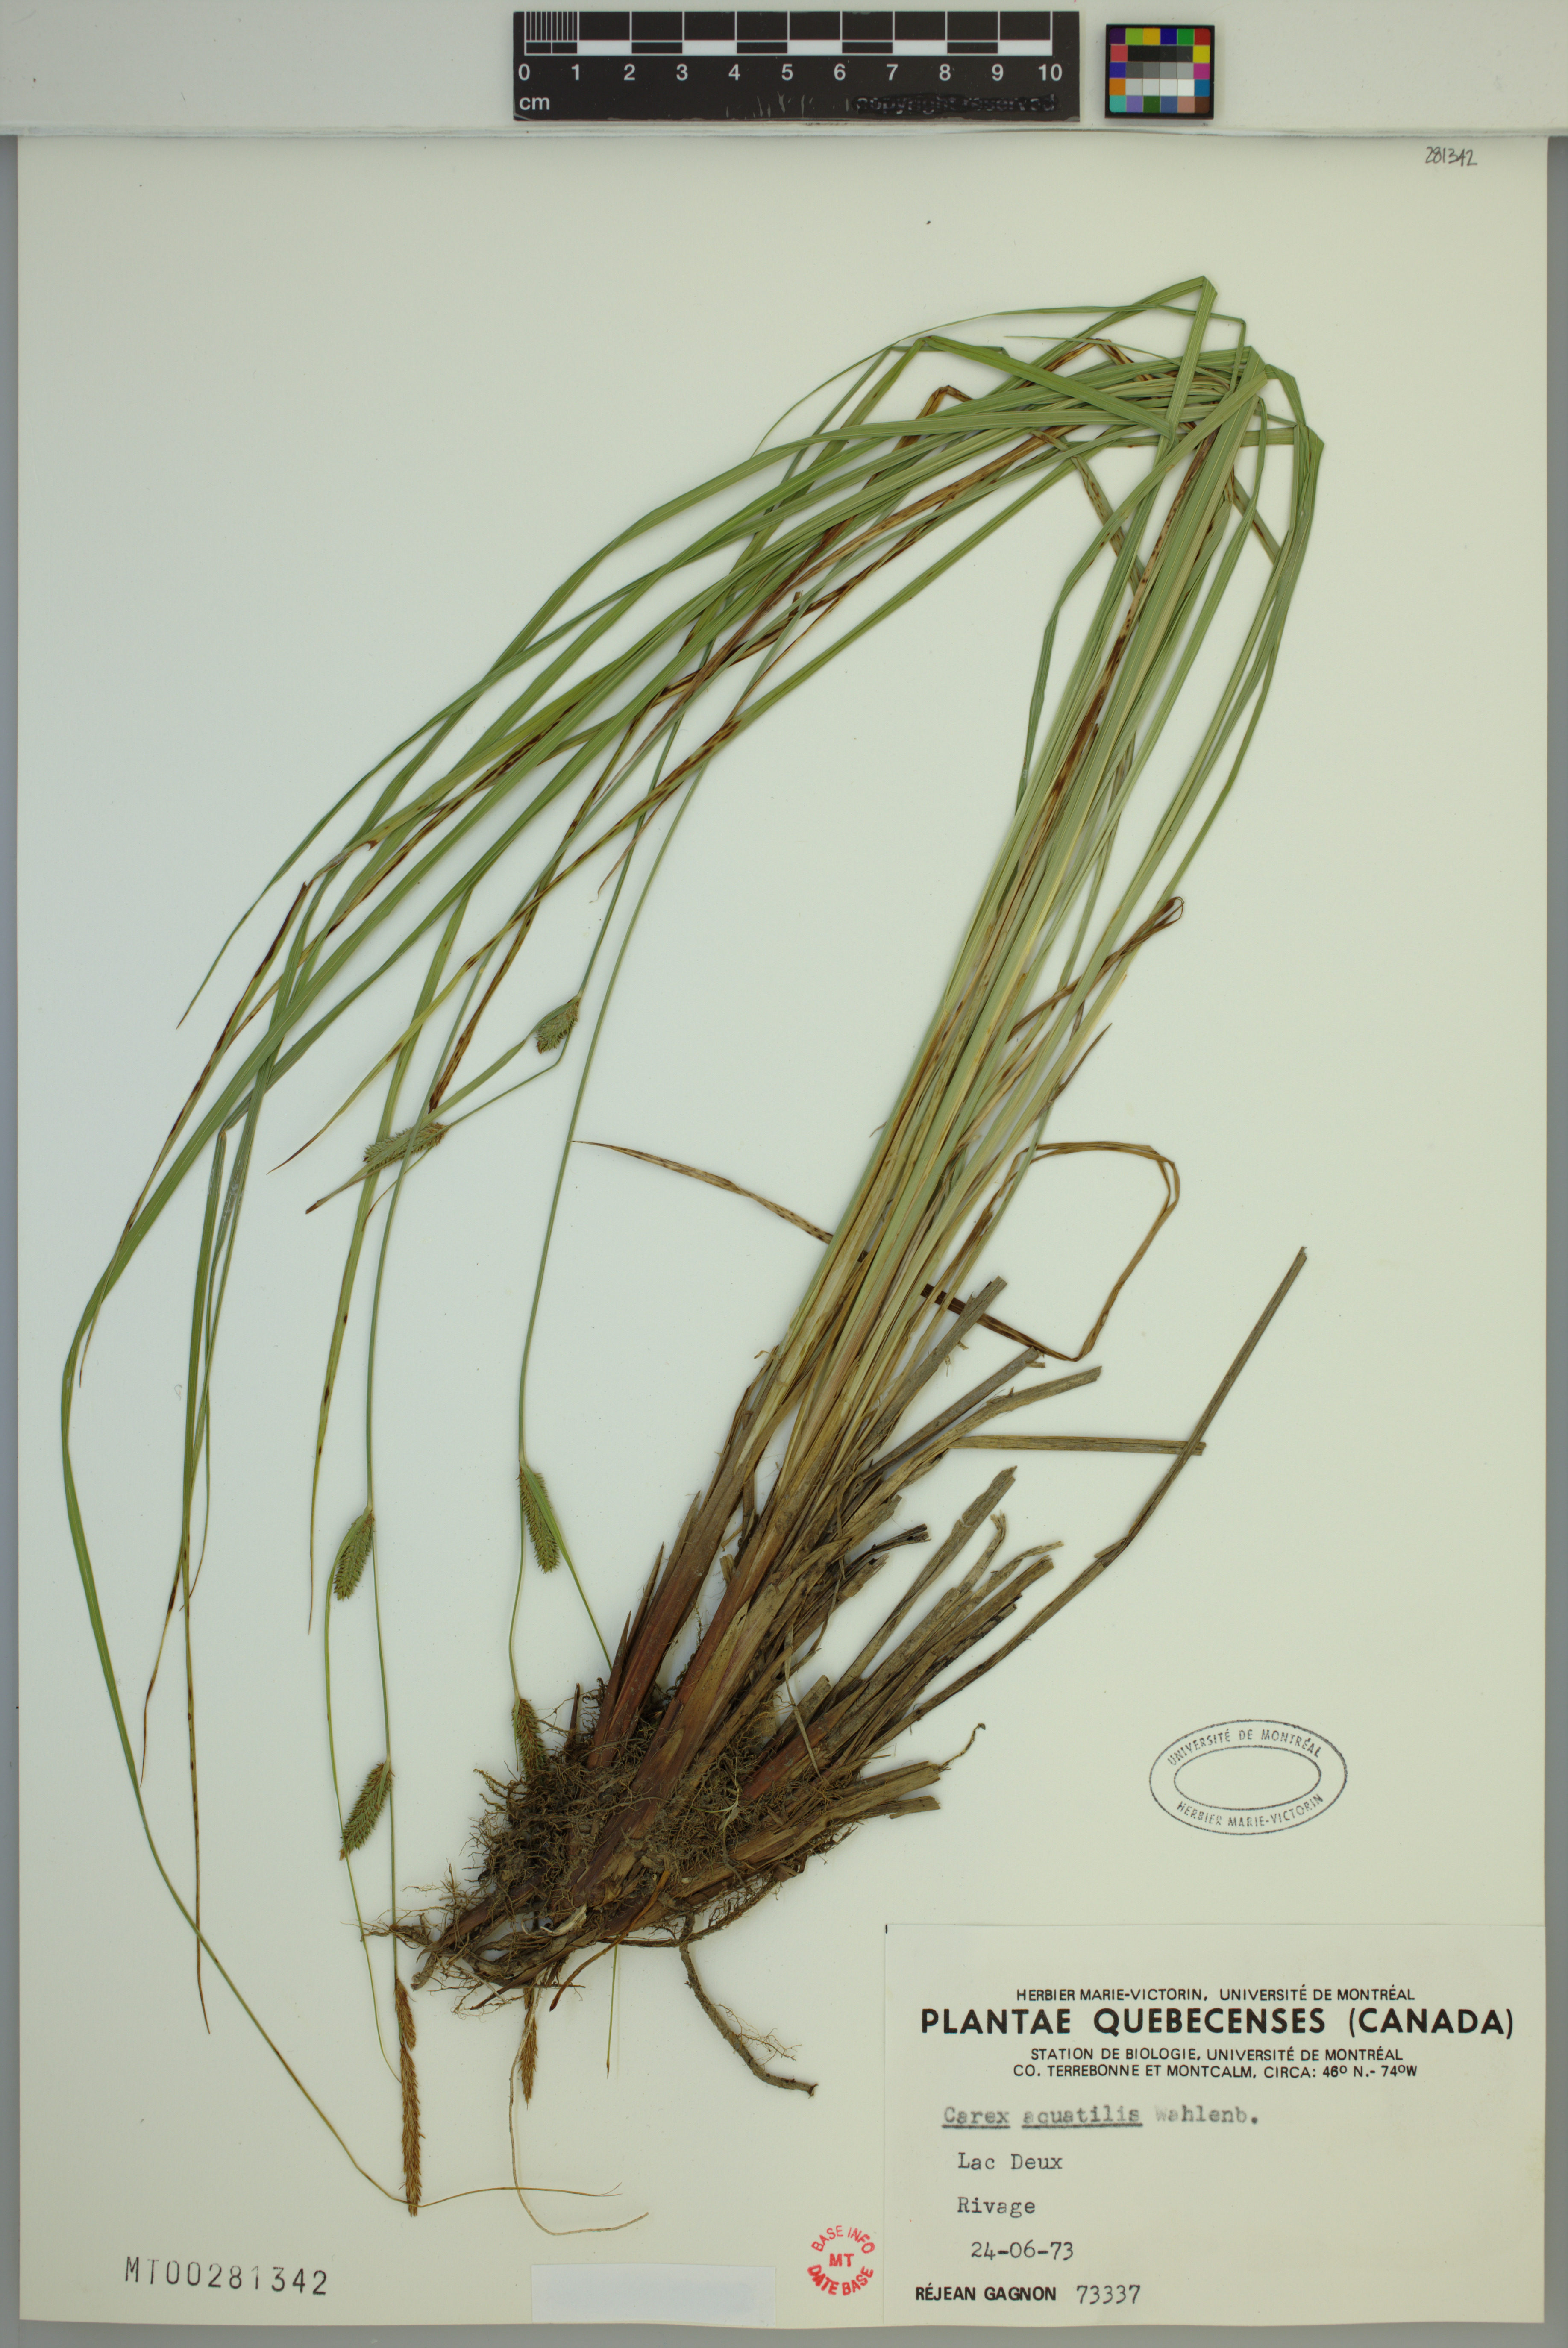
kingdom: Plantae
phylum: Tracheophyta
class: Liliopsida
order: Poales
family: Cyperaceae
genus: Carex
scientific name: Carex aquatilis
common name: Water sedge
